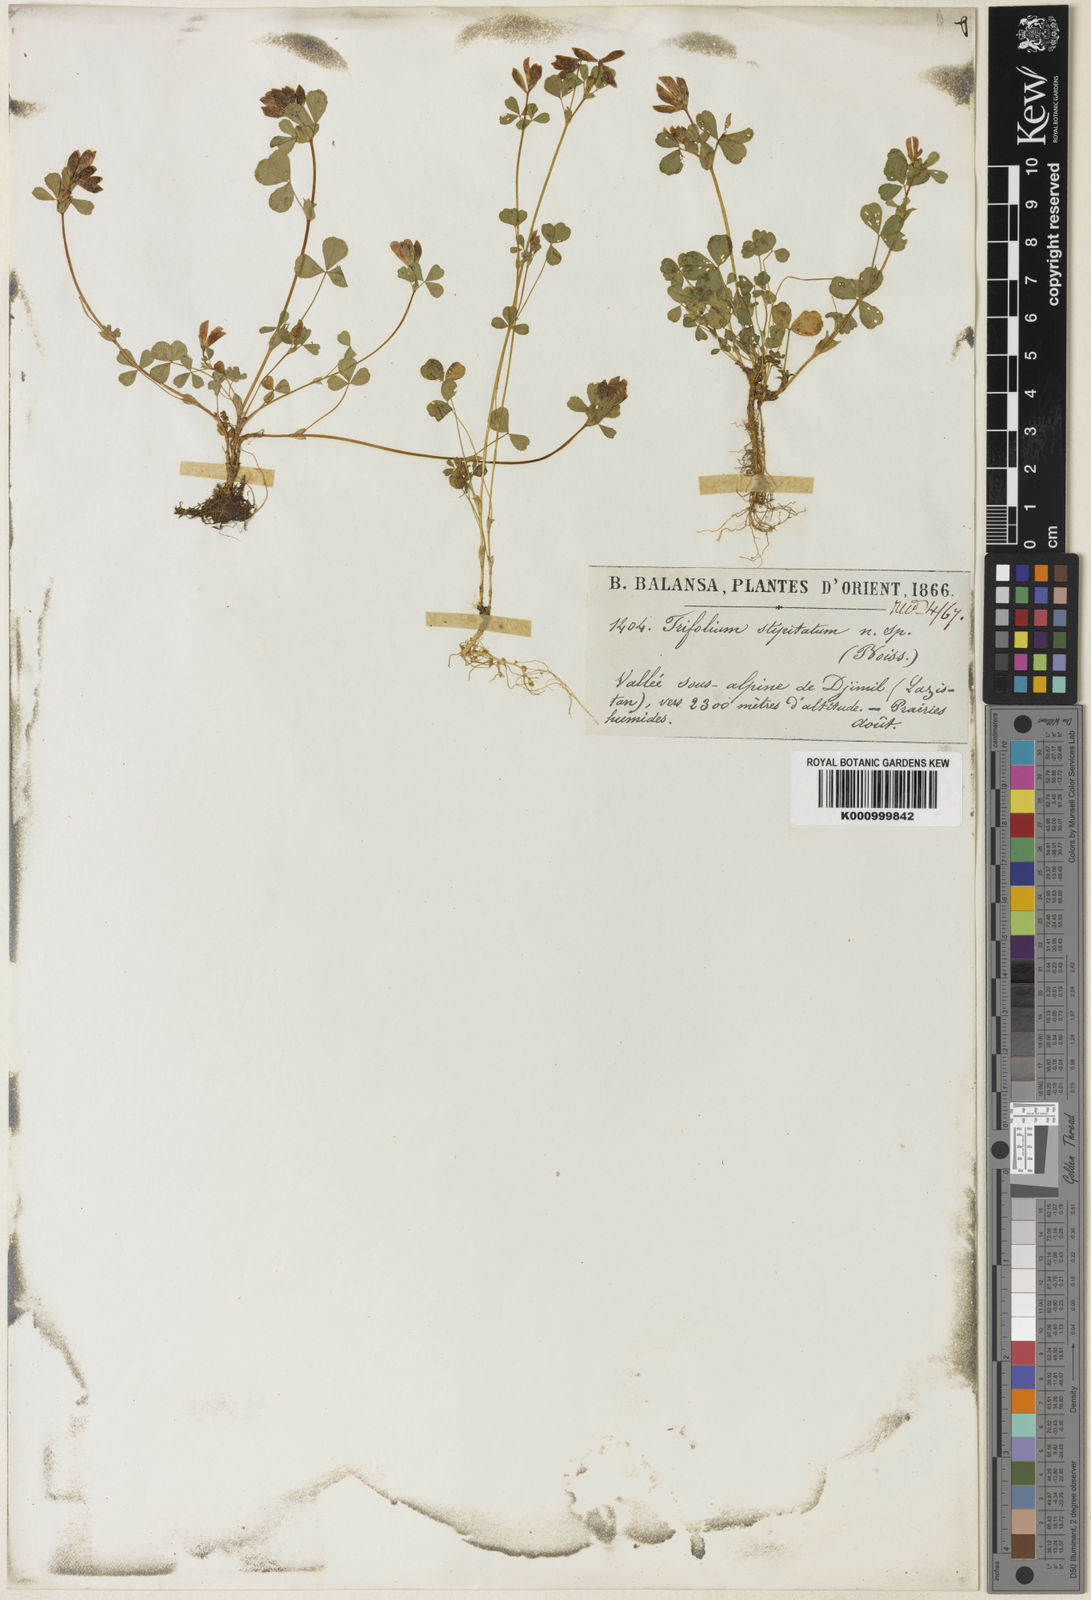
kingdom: Plantae
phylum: Tracheophyta
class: Magnoliopsida
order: Fabales
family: Fabaceae
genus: Trifolium
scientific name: Trifolium sintenisii
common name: Sintenis's clover
